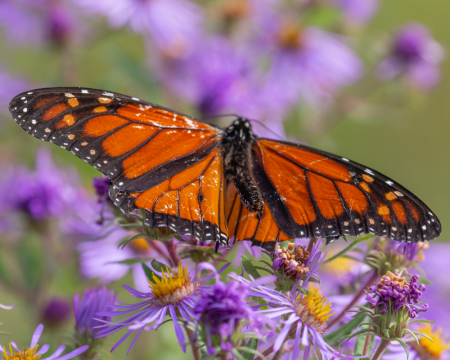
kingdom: Animalia
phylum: Arthropoda
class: Insecta
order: Lepidoptera
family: Nymphalidae
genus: Danaus
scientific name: Danaus plexippus
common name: Monarch
